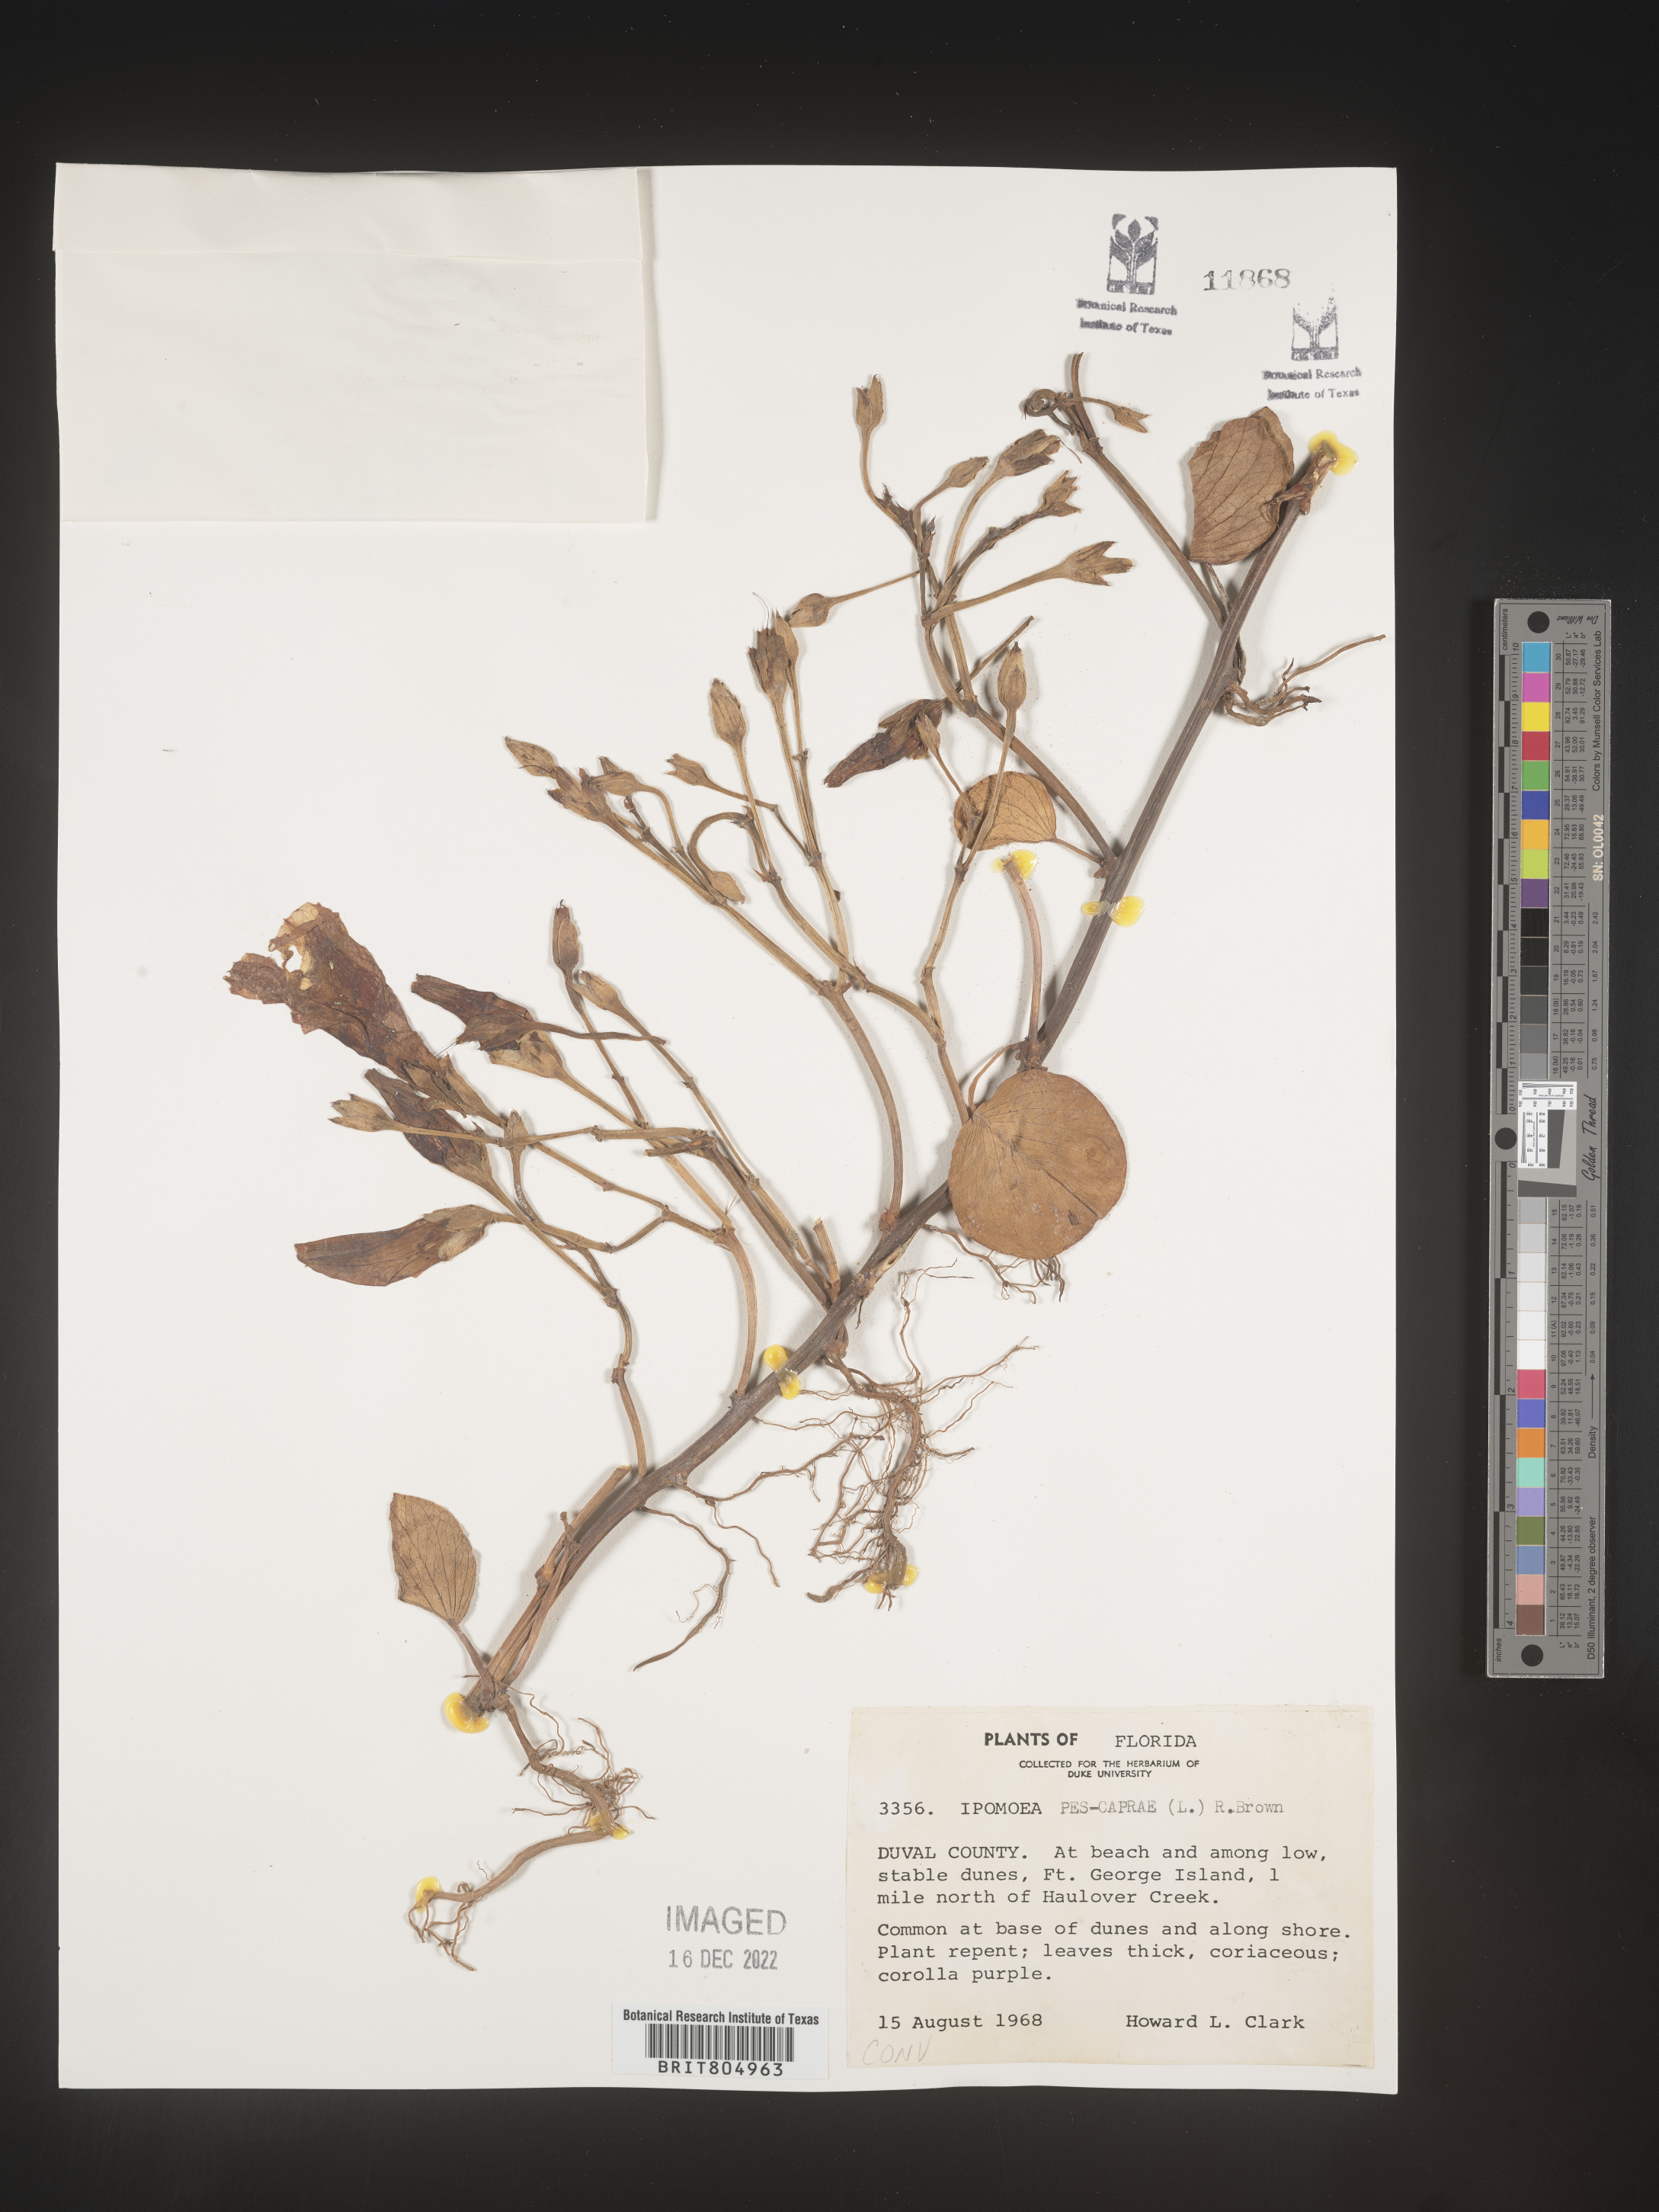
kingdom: Plantae
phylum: Tracheophyta
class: Magnoliopsida
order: Solanales
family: Convolvulaceae
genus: Ipomoea
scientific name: Ipomoea pes-caprae
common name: Beach morning glory
